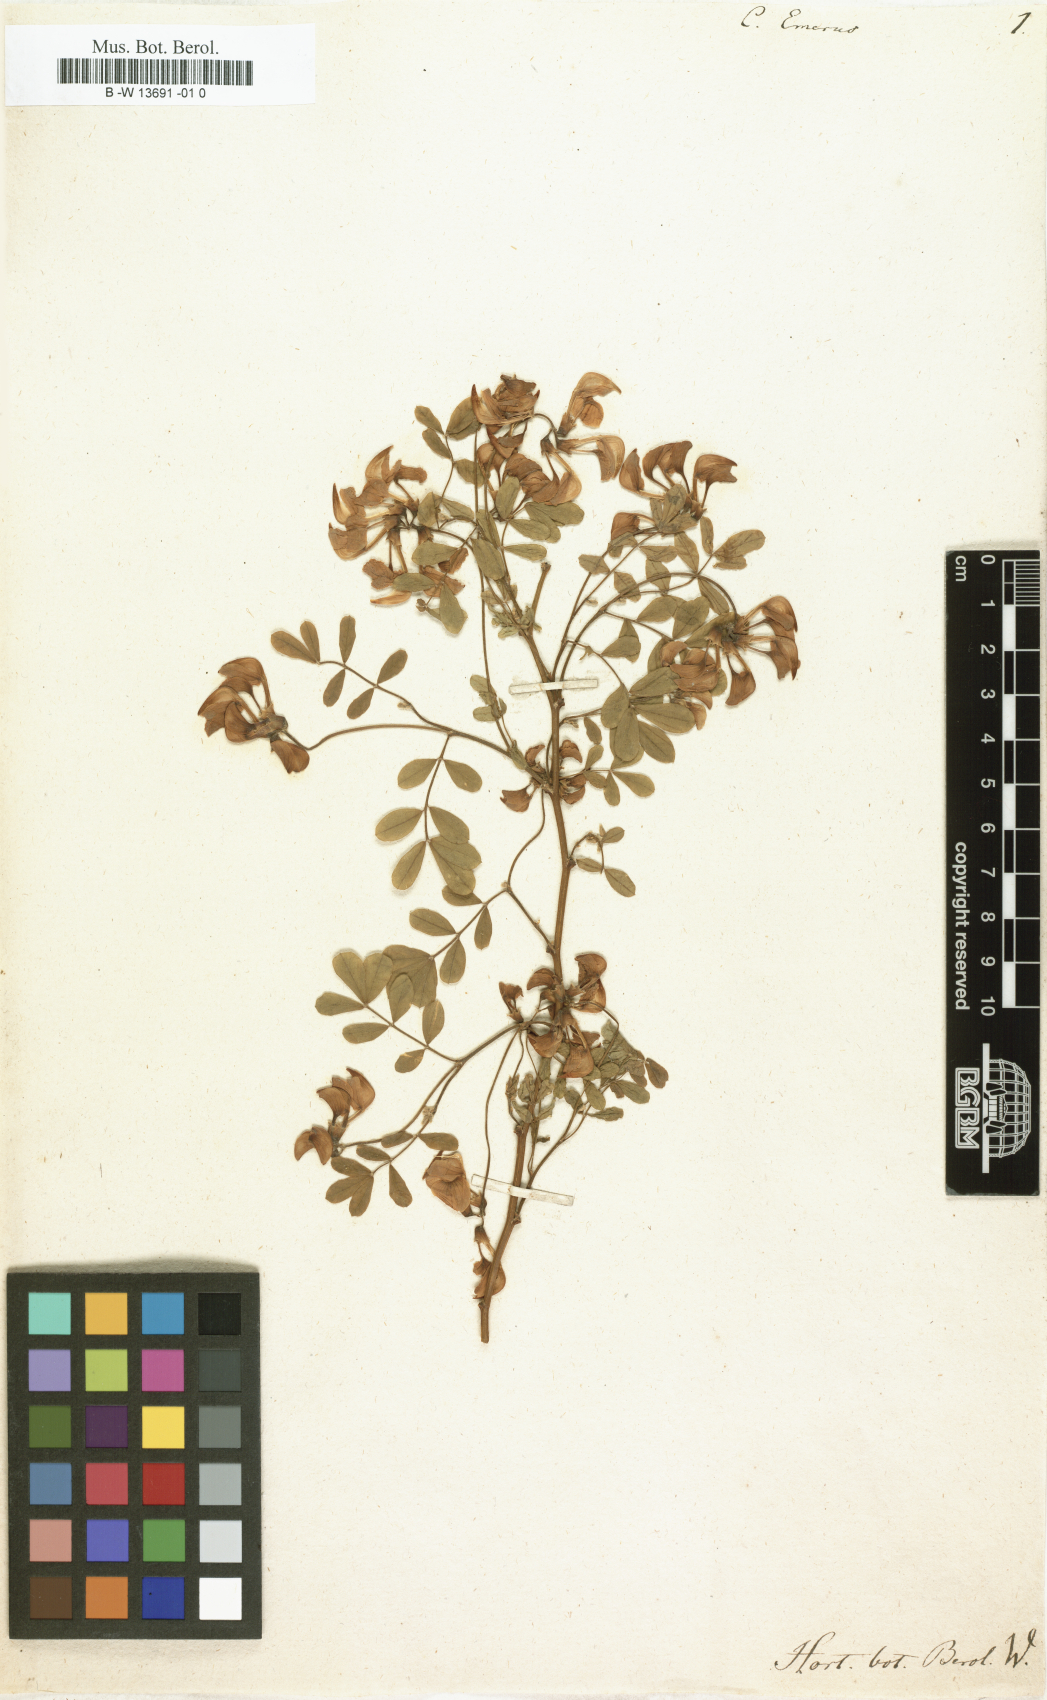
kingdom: Plantae
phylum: Tracheophyta
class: Magnoliopsida
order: Fabales
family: Fabaceae
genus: Coronilla
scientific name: Coronilla emerus
